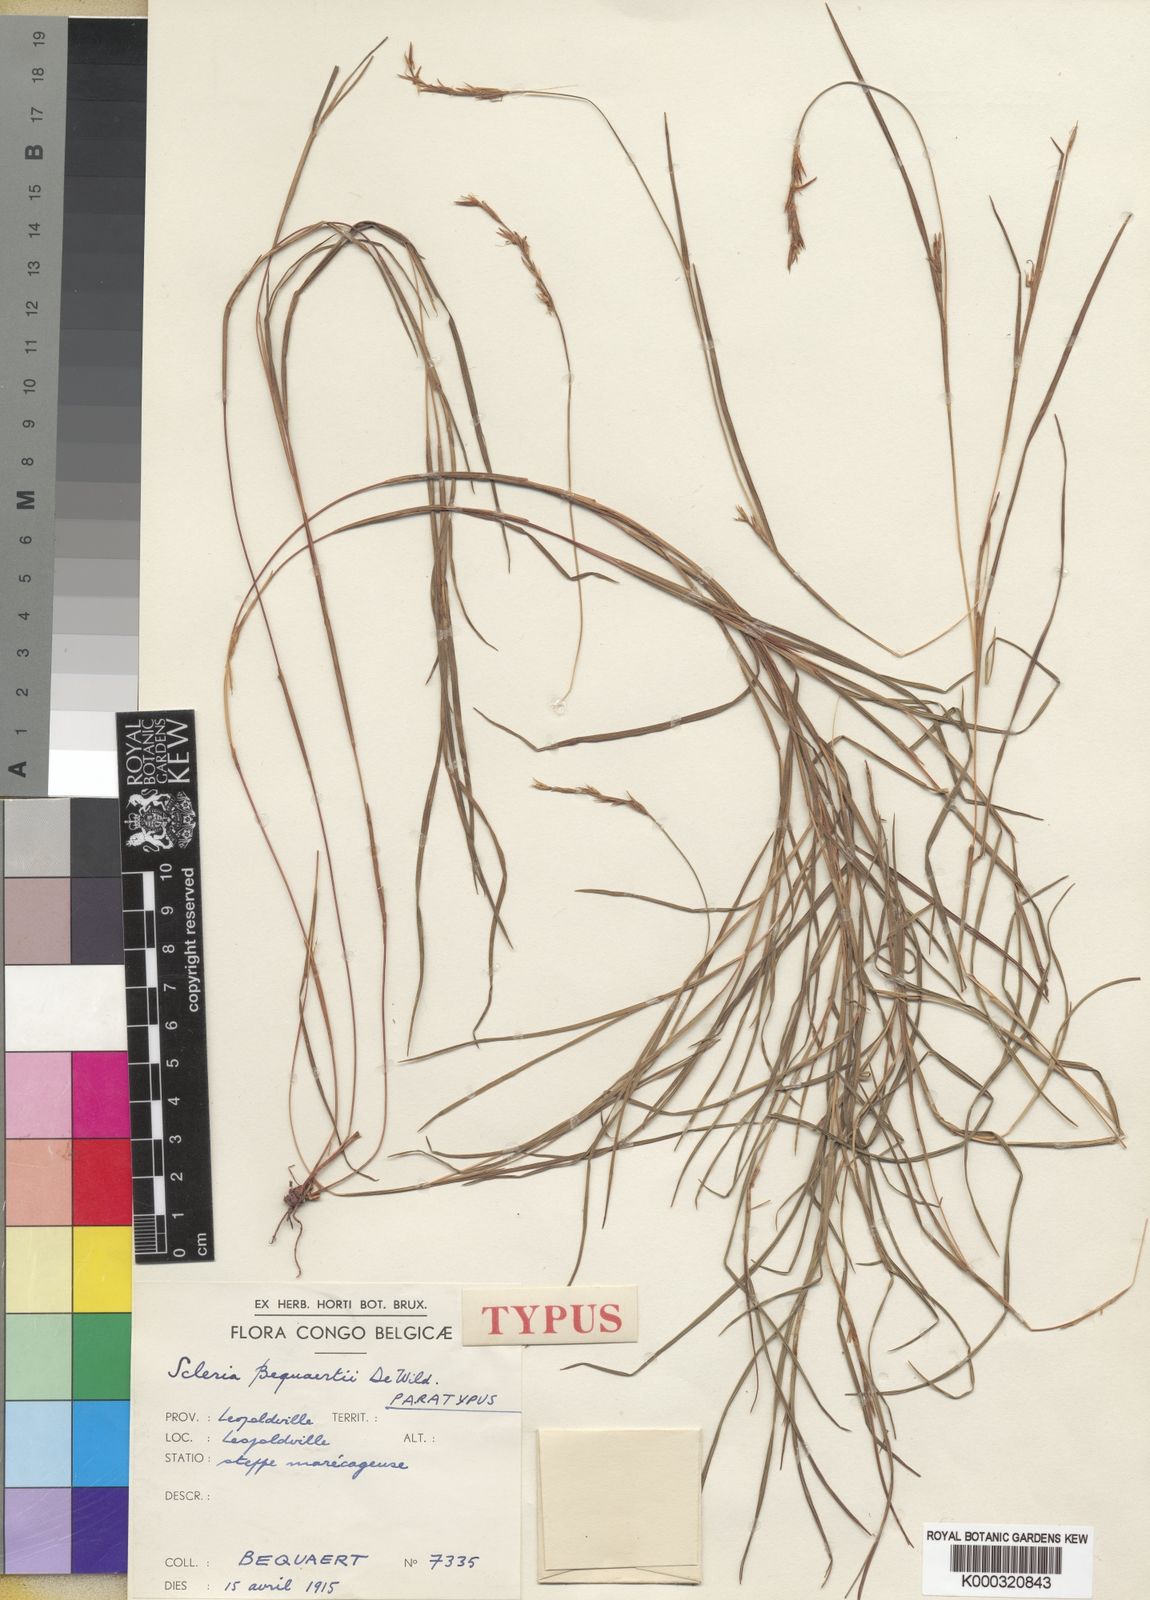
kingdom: Plantae
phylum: Tracheophyta
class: Liliopsida
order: Poales
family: Cyperaceae
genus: Scleria
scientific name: Scleria bequaertii
